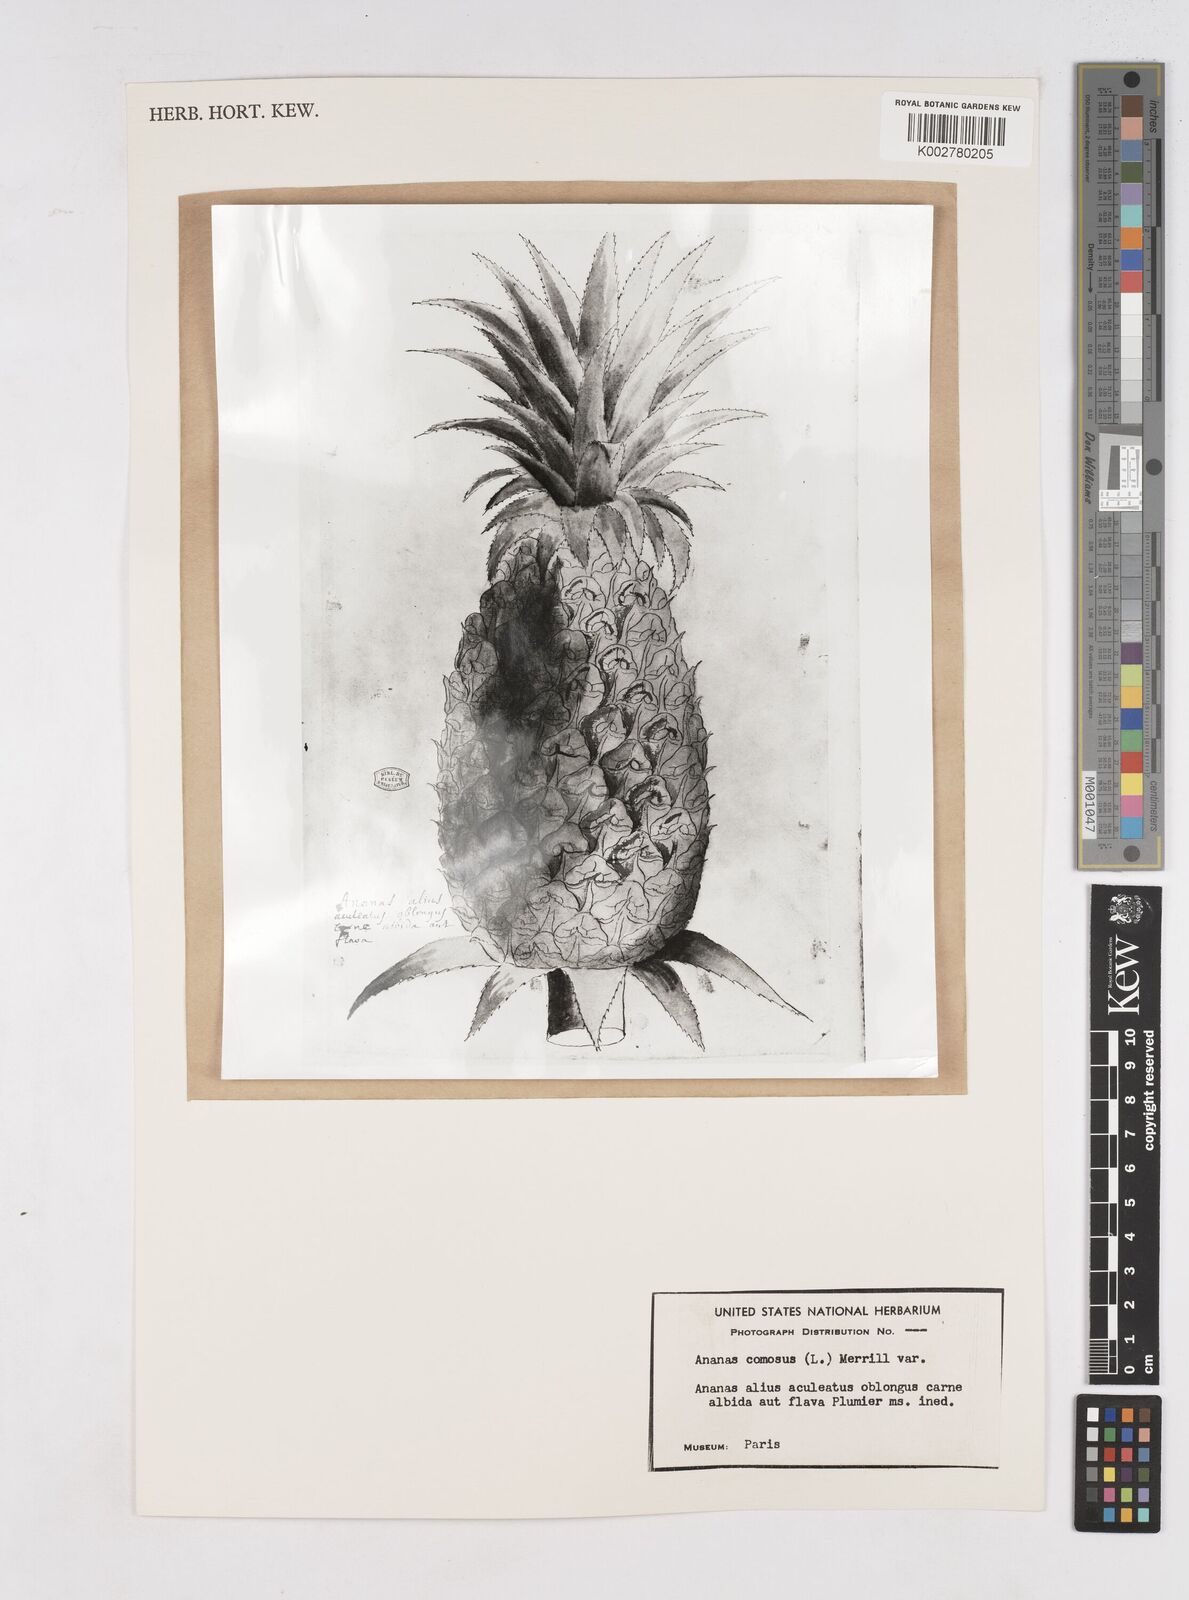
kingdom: Plantae
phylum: Tracheophyta
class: Liliopsida
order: Poales
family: Bromeliaceae
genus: Ananas
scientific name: Ananas
